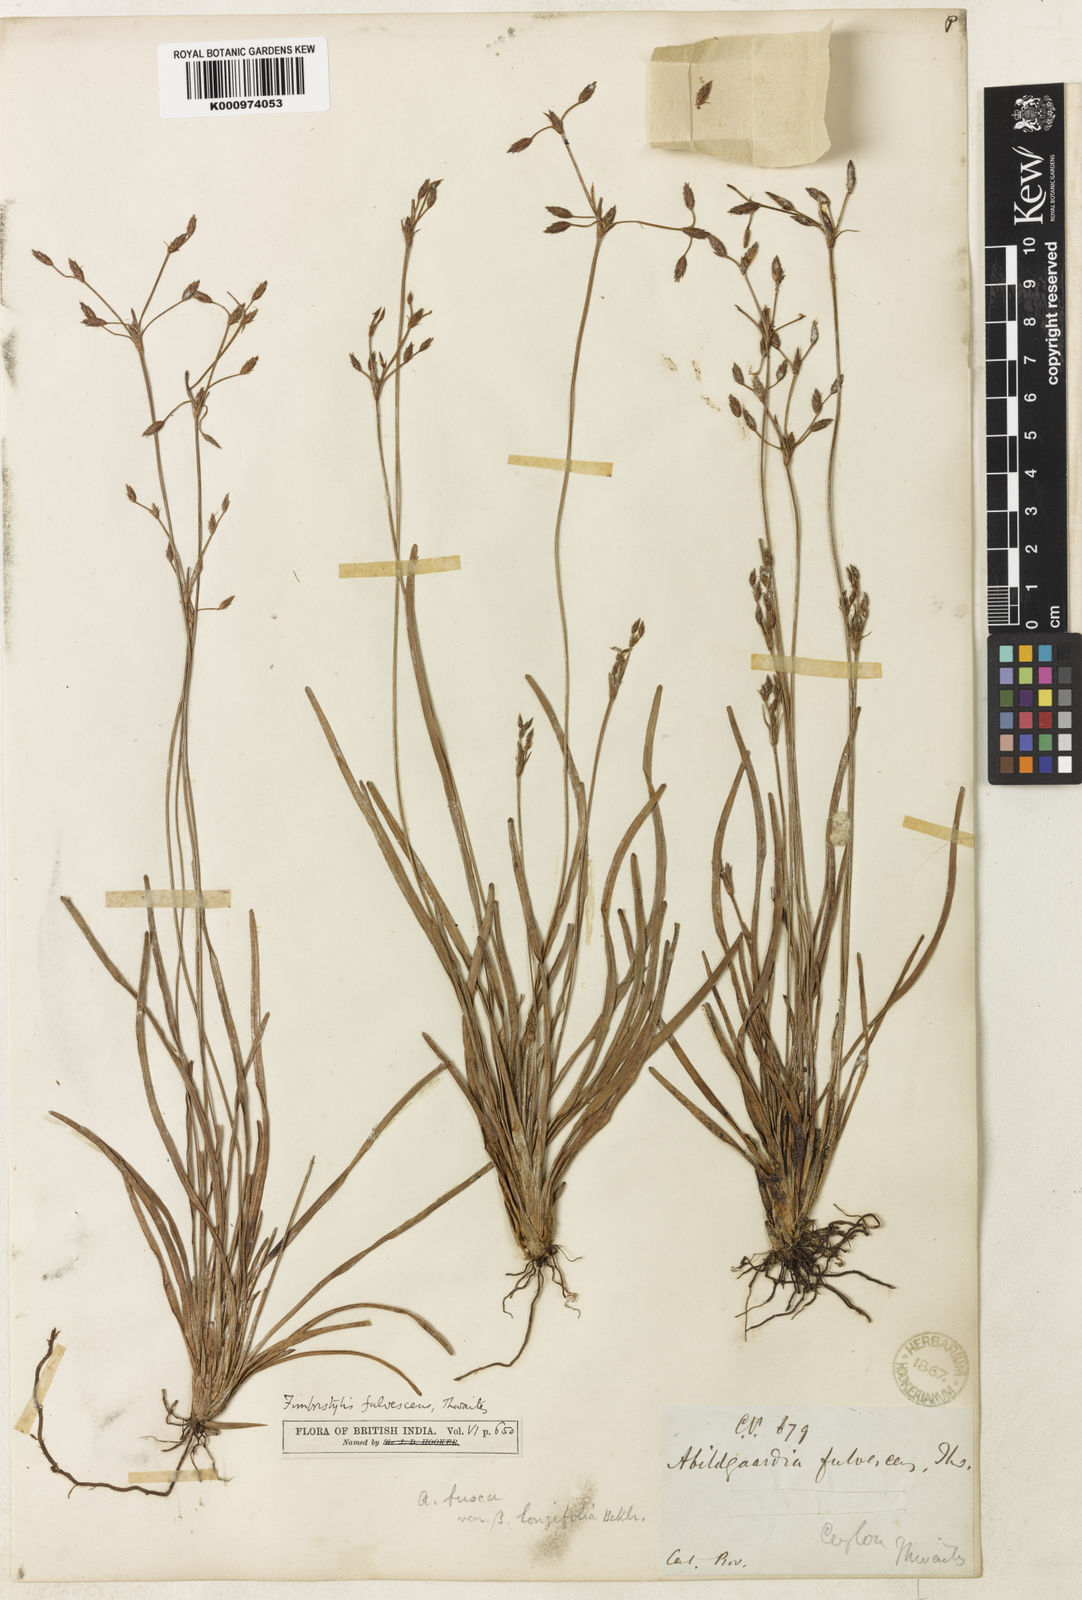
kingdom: Plantae
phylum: Tracheophyta
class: Liliopsida
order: Poales
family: Cyperaceae
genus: Fimbristylis
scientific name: Fimbristylis fulvescens
